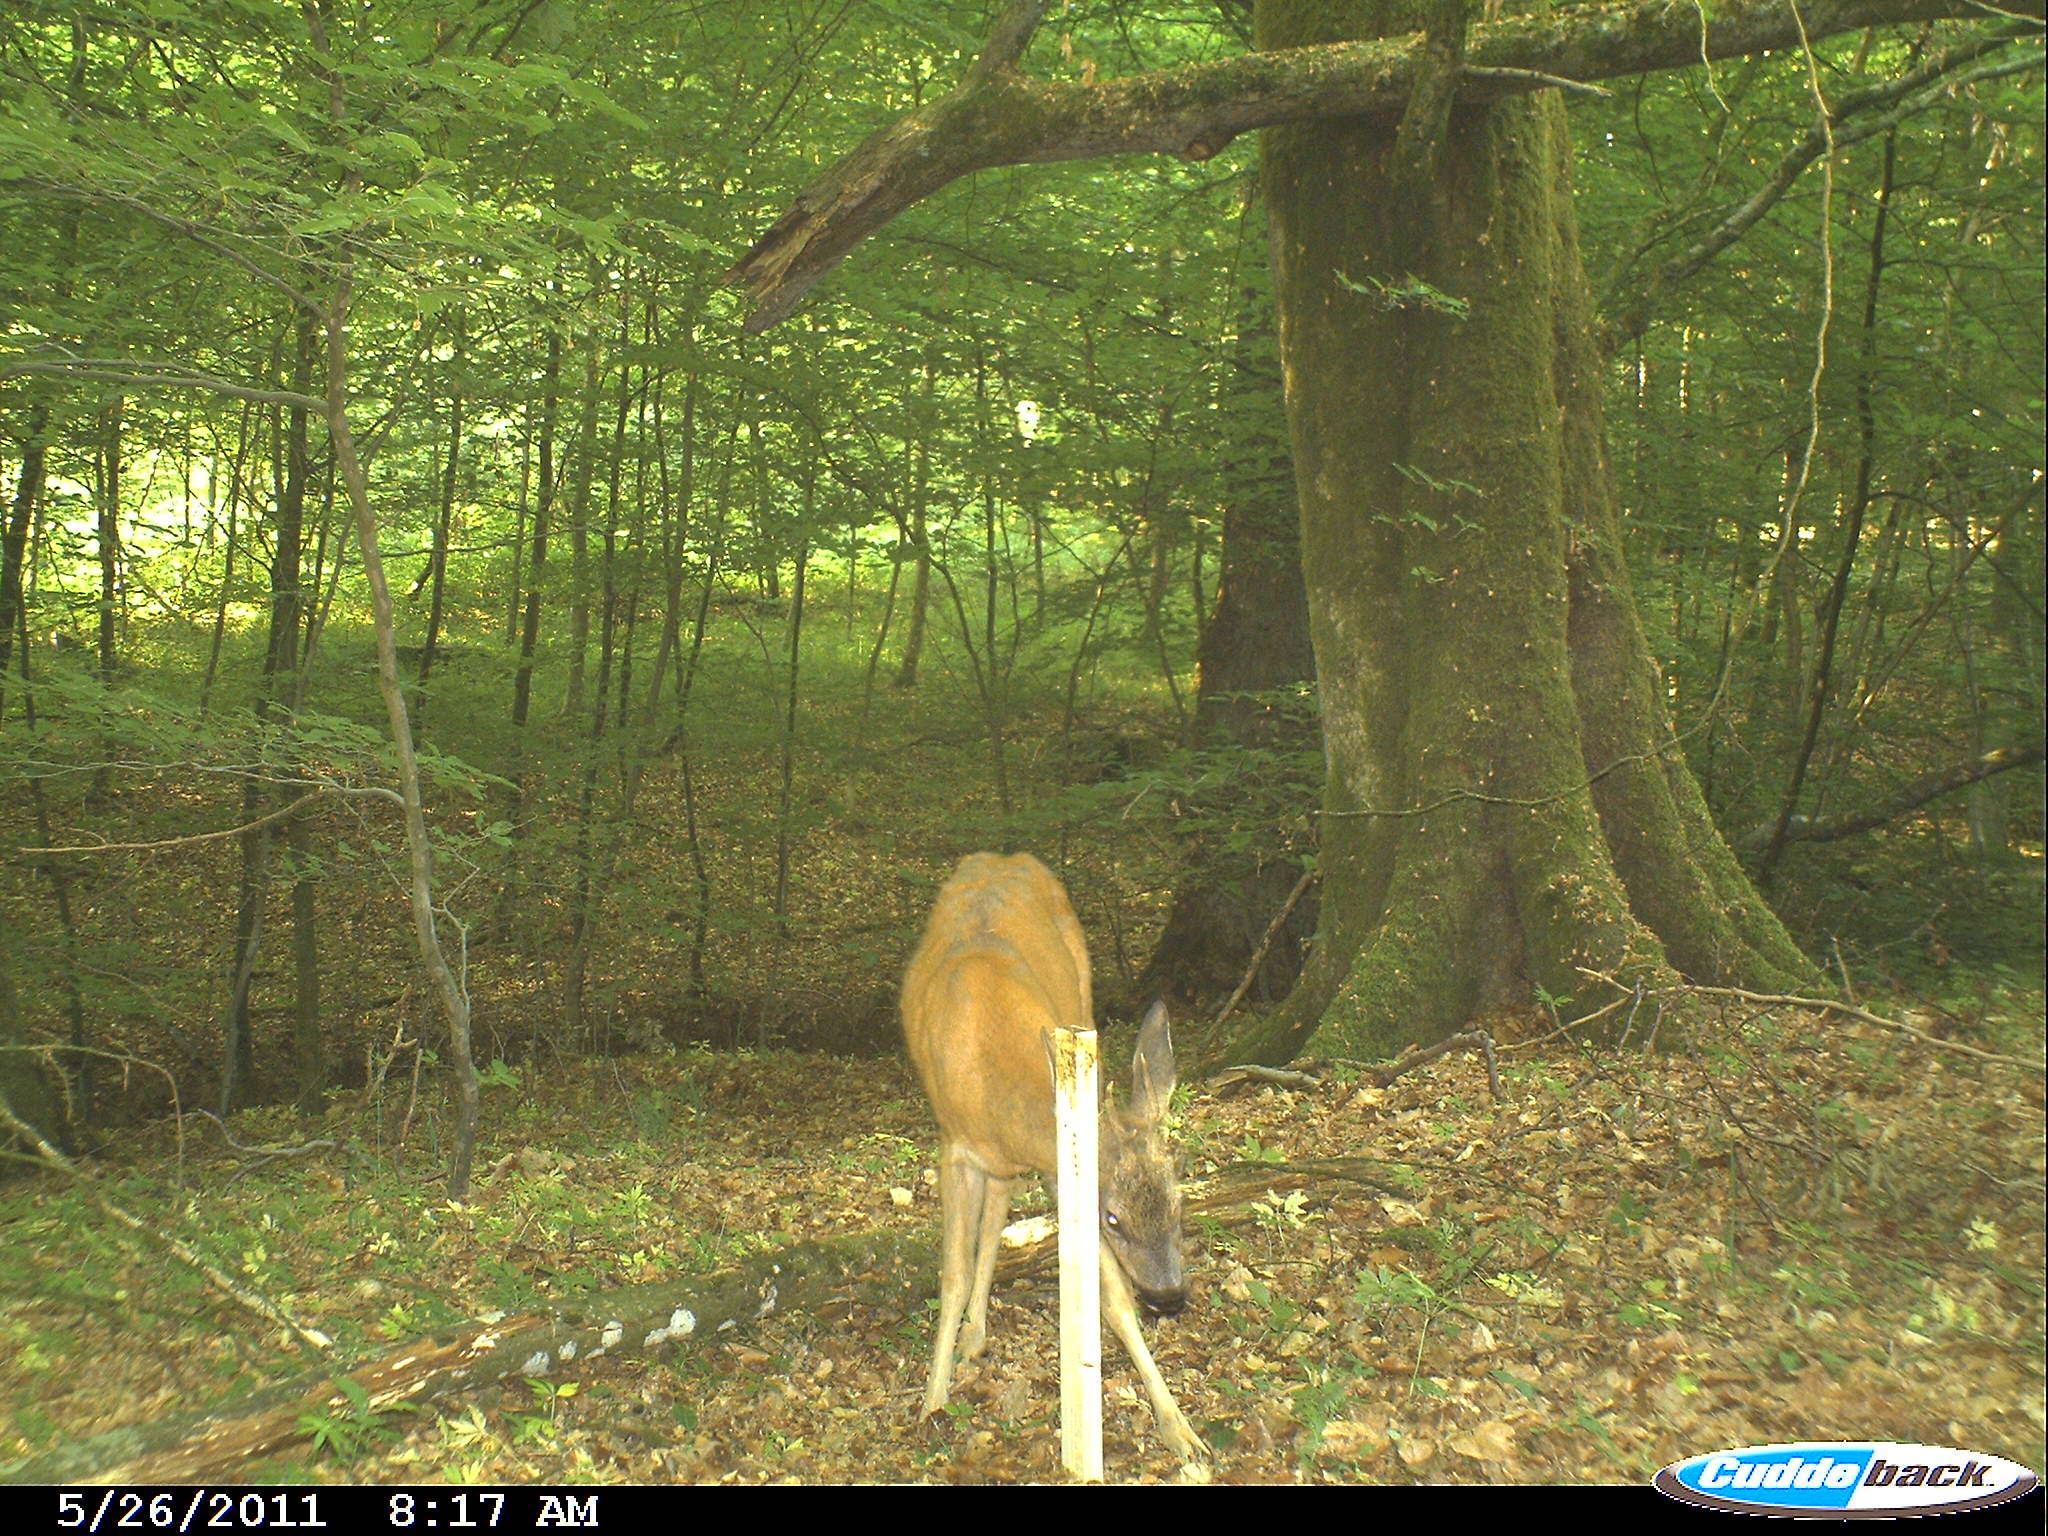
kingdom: Animalia
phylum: Chordata
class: Mammalia
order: Artiodactyla
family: Cervidae
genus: Capreolus
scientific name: Capreolus capreolus
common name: Western roe deer
